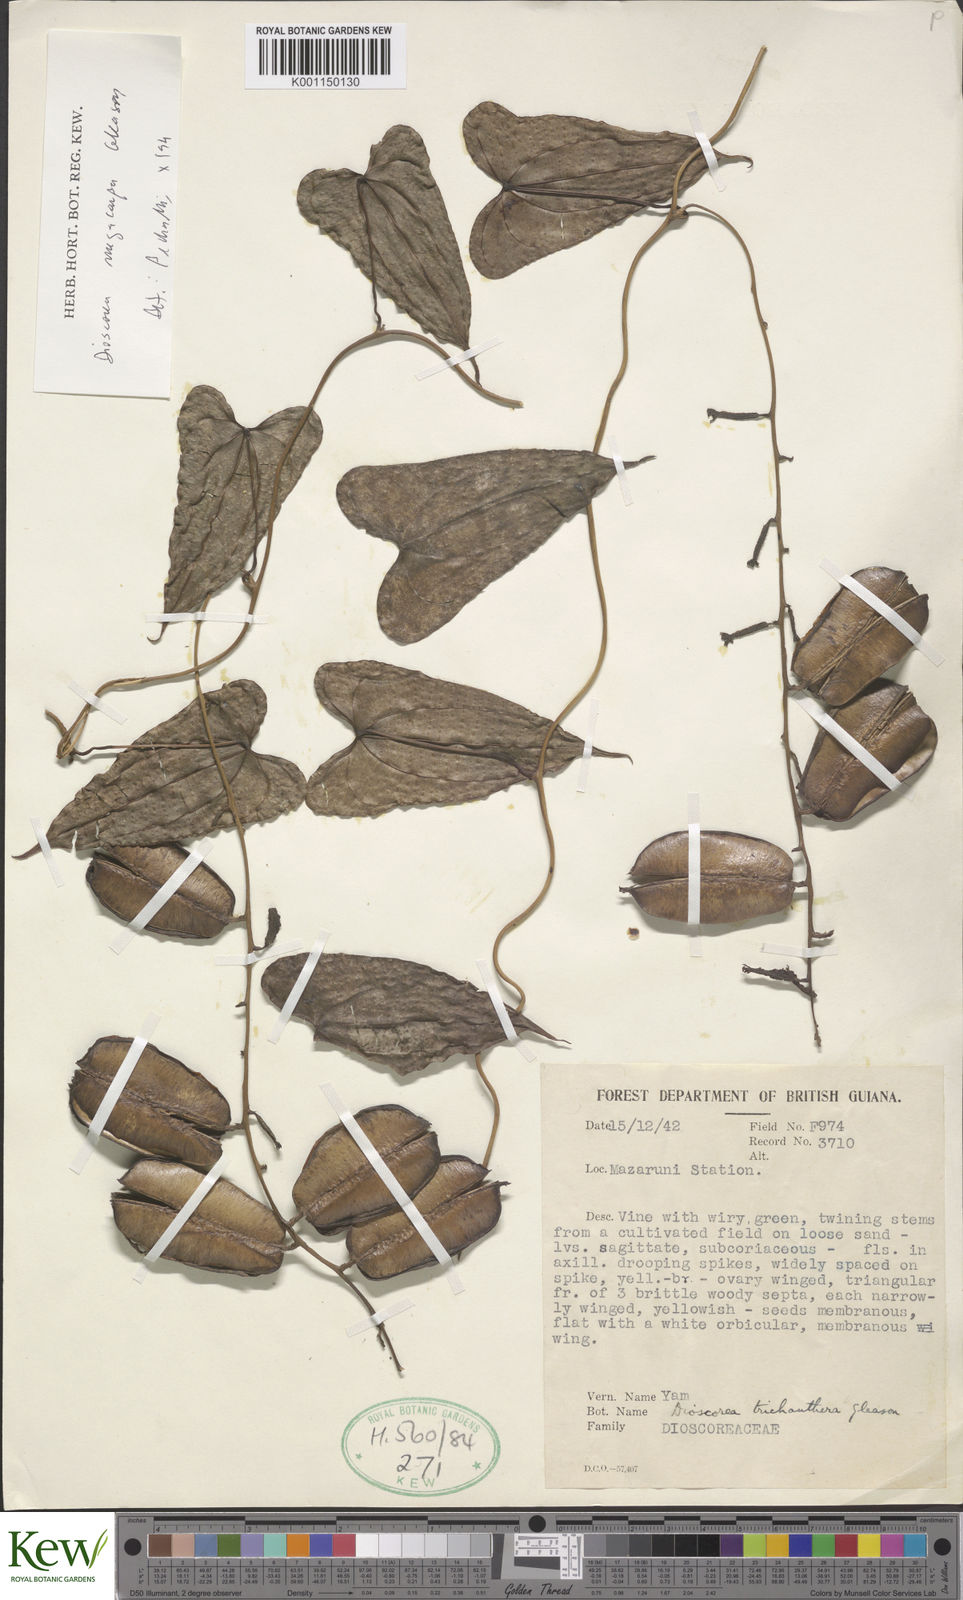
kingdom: Plantae
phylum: Tracheophyta
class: Liliopsida
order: Dioscoreales
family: Dioscoreaceae
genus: Dioscorea
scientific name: Dioscorea trichanthera
